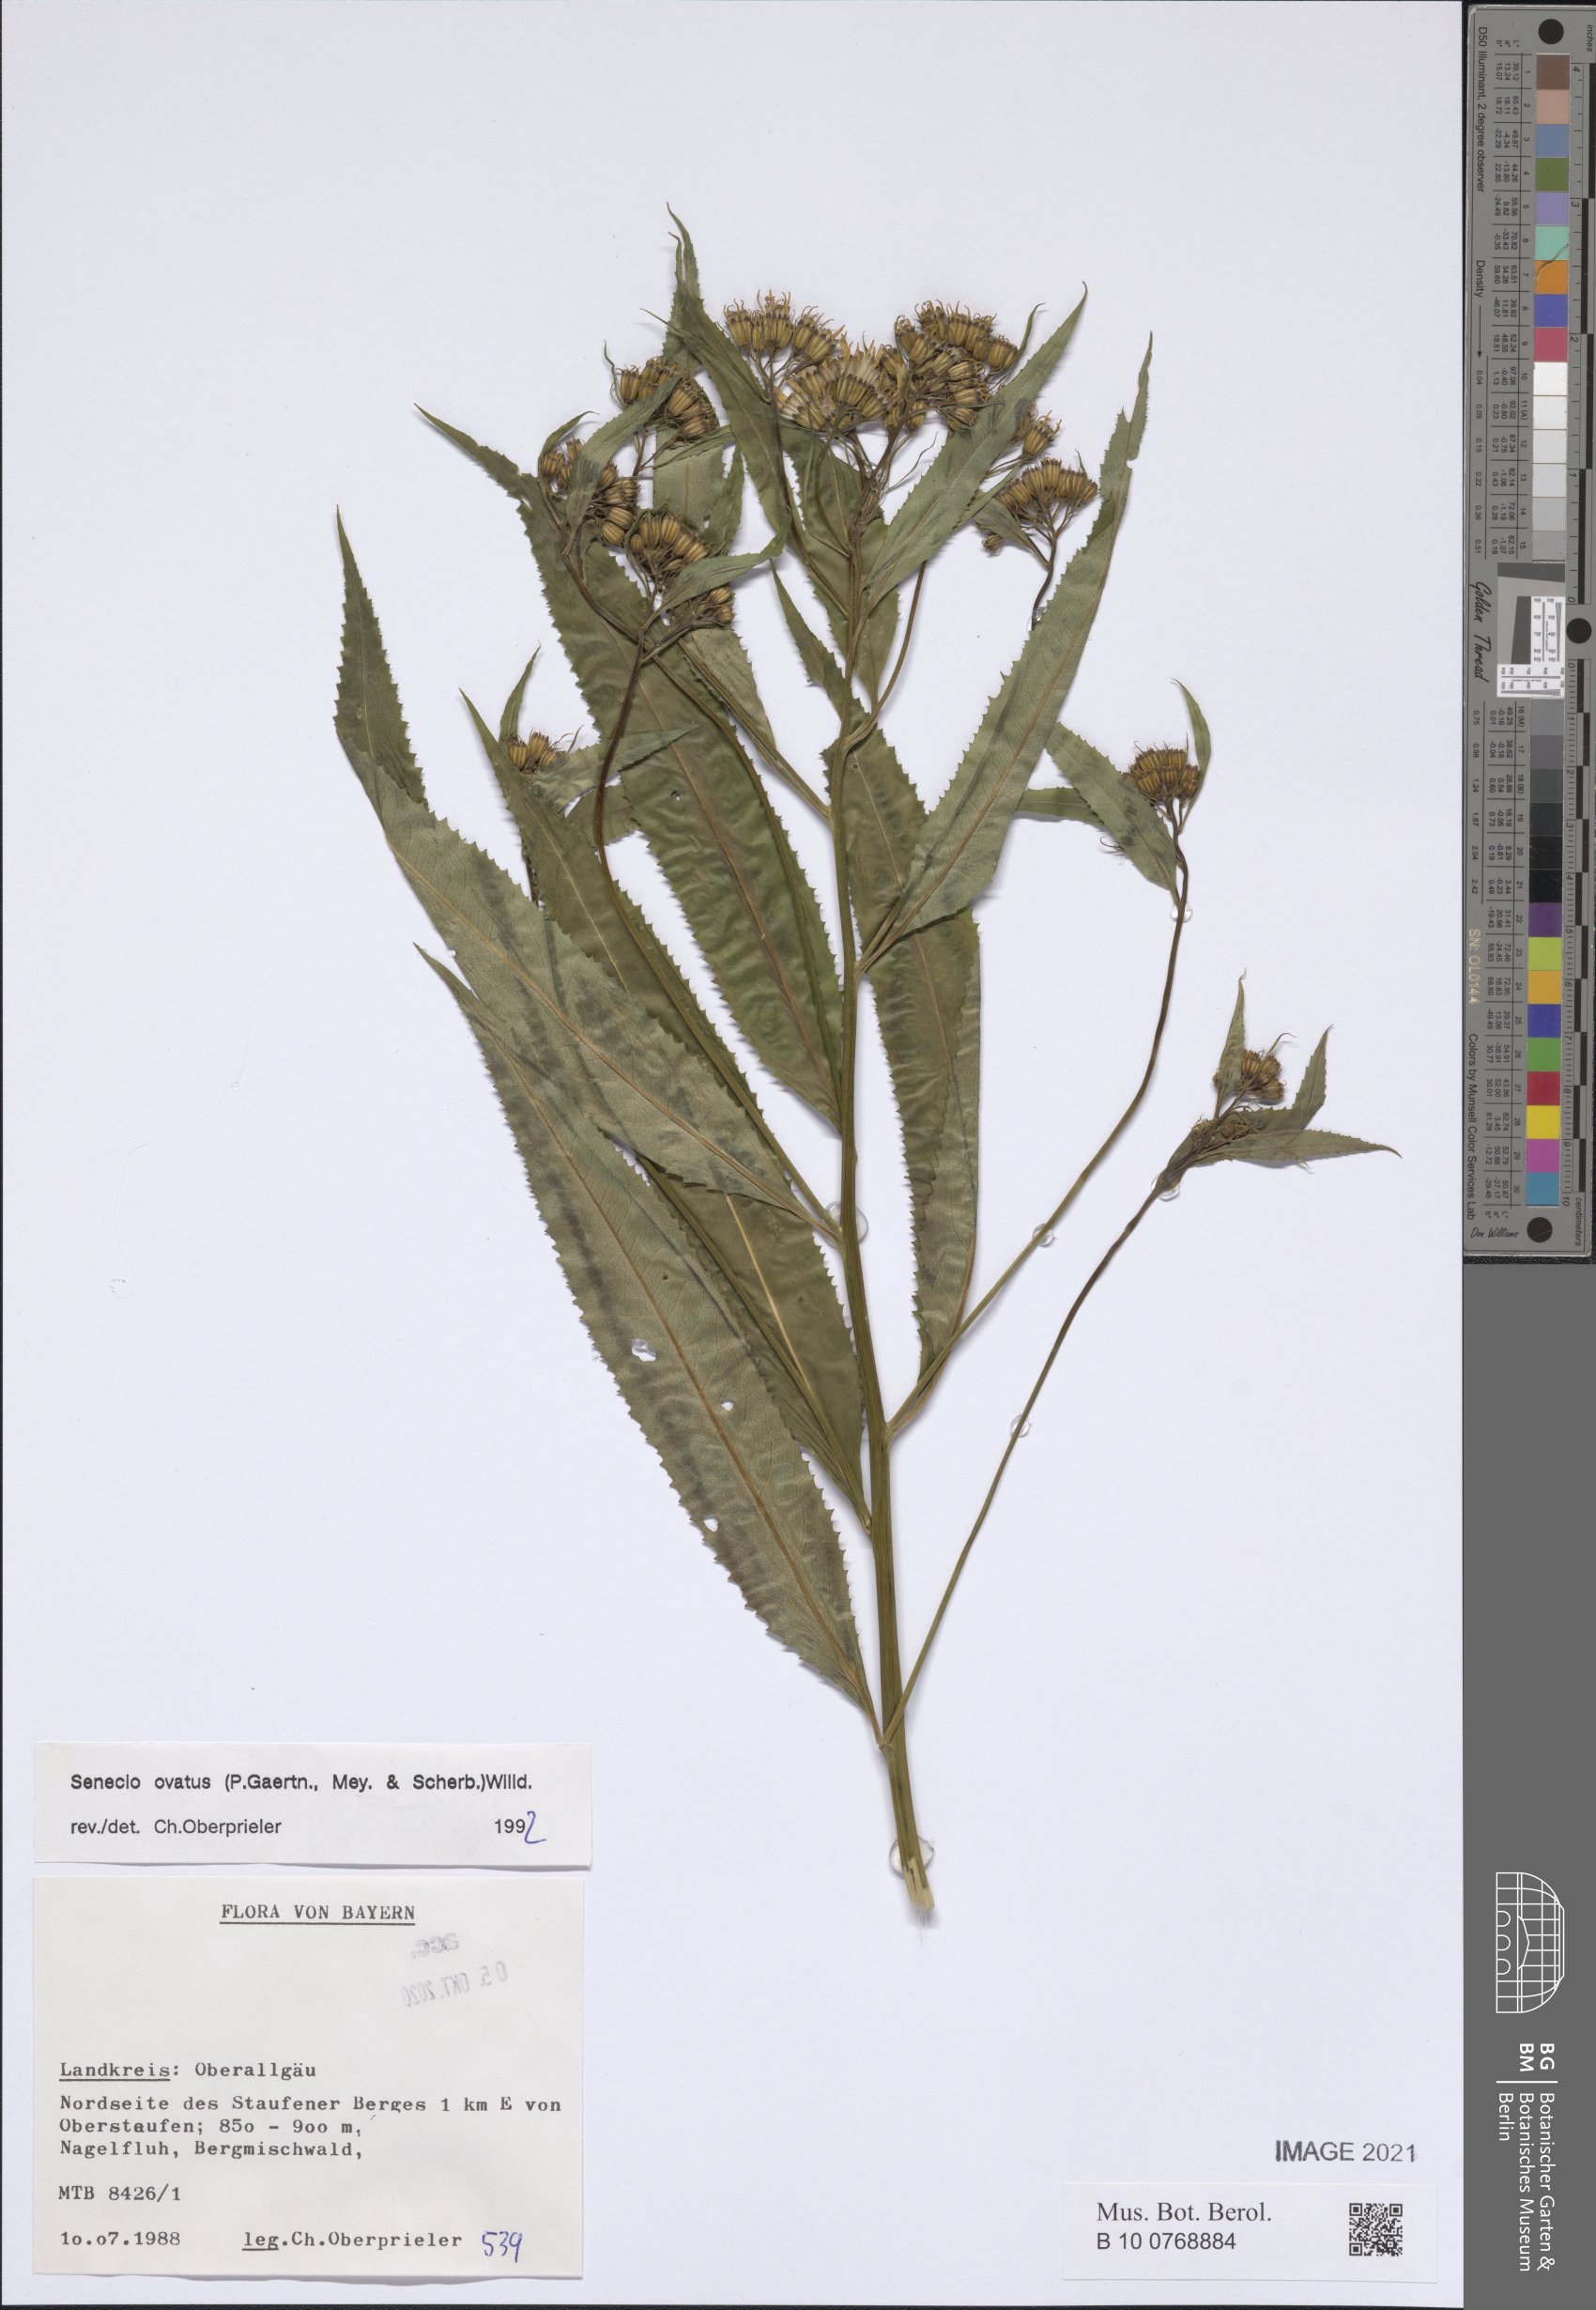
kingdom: Plantae
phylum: Tracheophyta
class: Magnoliopsida
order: Asterales
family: Asteraceae
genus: Senecio
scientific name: Senecio ovatus
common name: Wood ragwort
